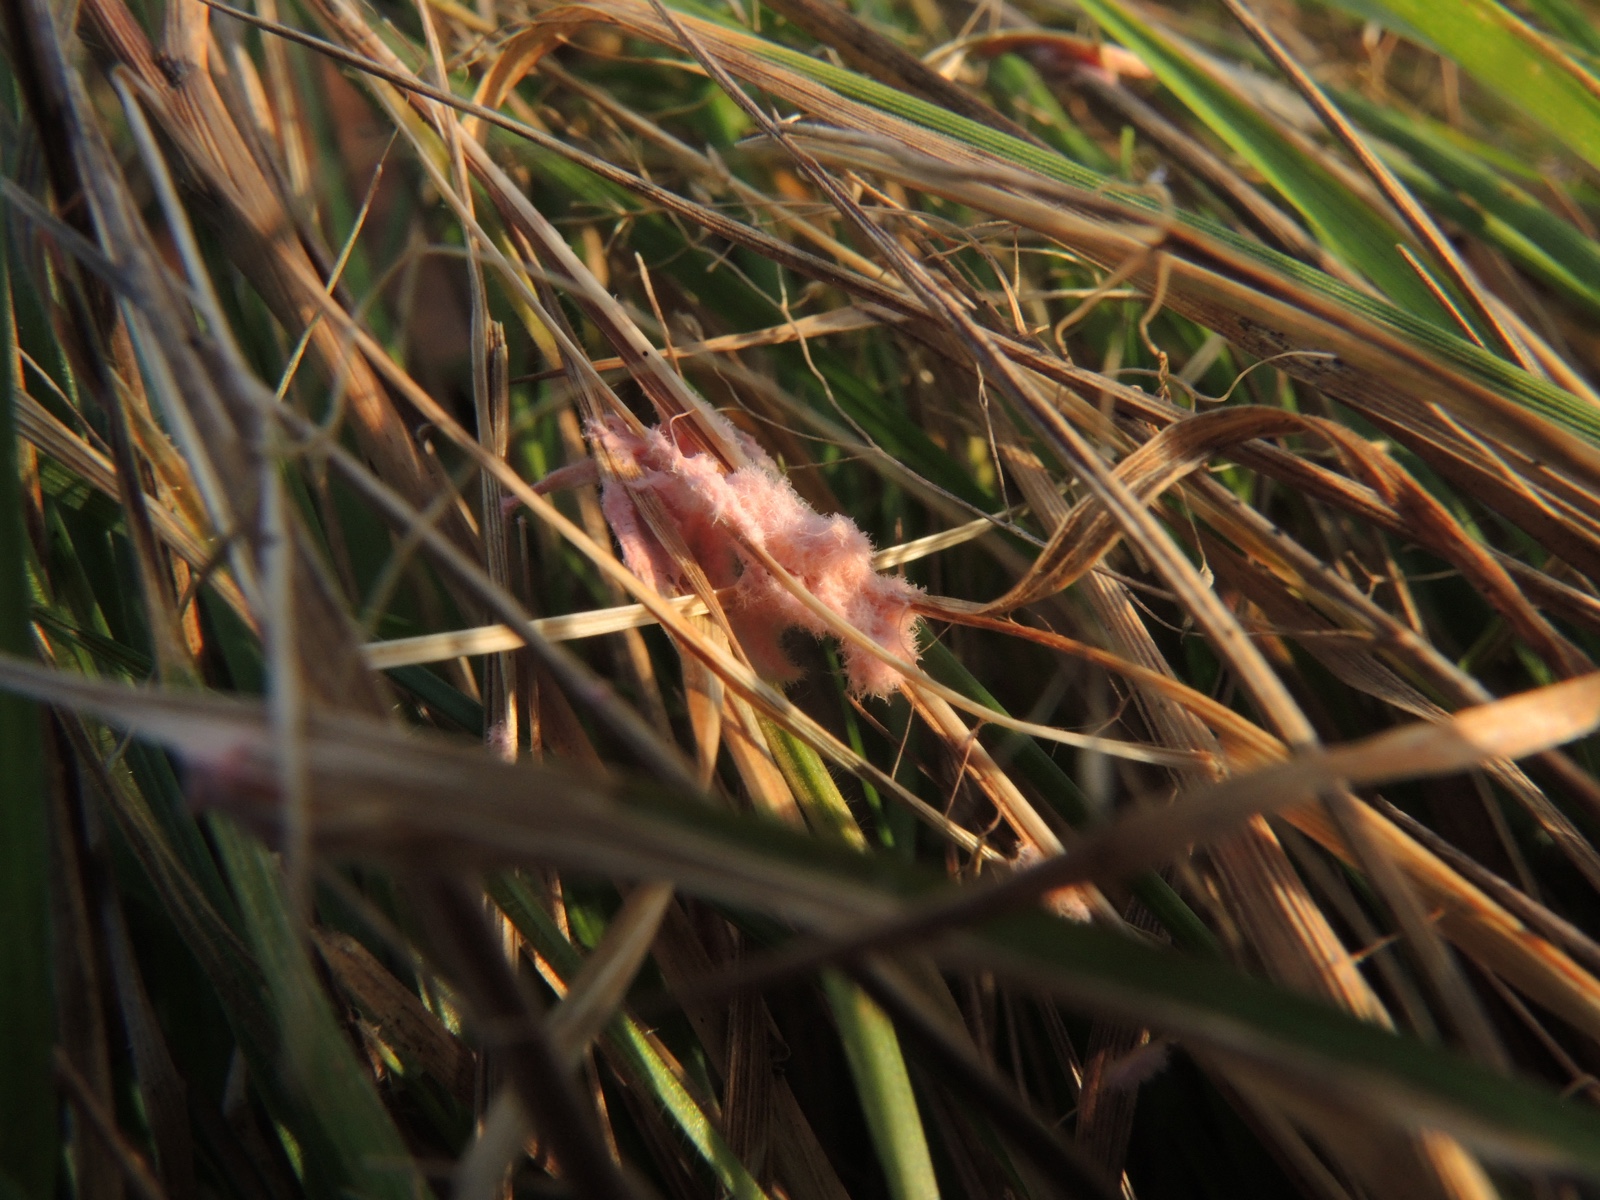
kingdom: Fungi
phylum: Basidiomycota
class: Agaricomycetes
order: Corticiales
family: Corticiaceae
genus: Laetisaria
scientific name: Laetisaria fuciformis
